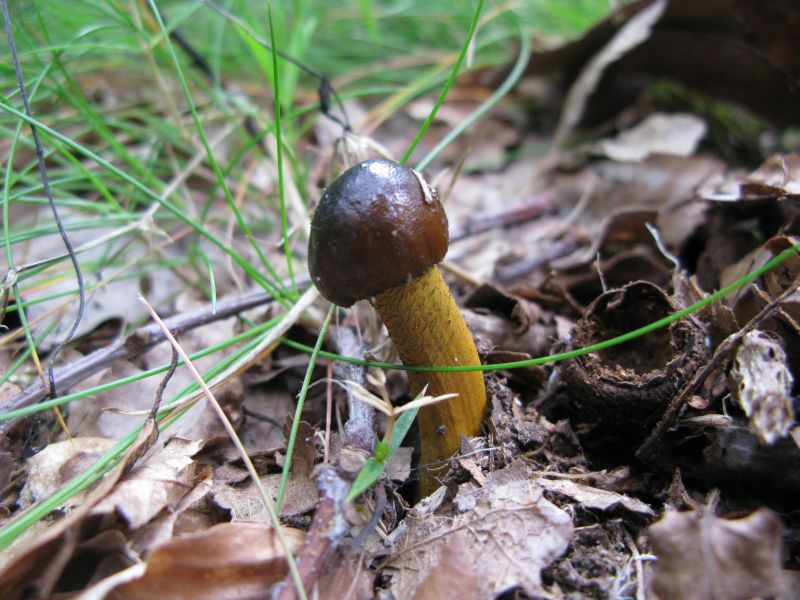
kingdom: Fungi
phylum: Ascomycota
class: Sordariomycetes
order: Hypocreales
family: Ophiocordycipitaceae
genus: Tolypocladium
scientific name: Tolypocladium longisegmentatum
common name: kanadisk snyltekølle
